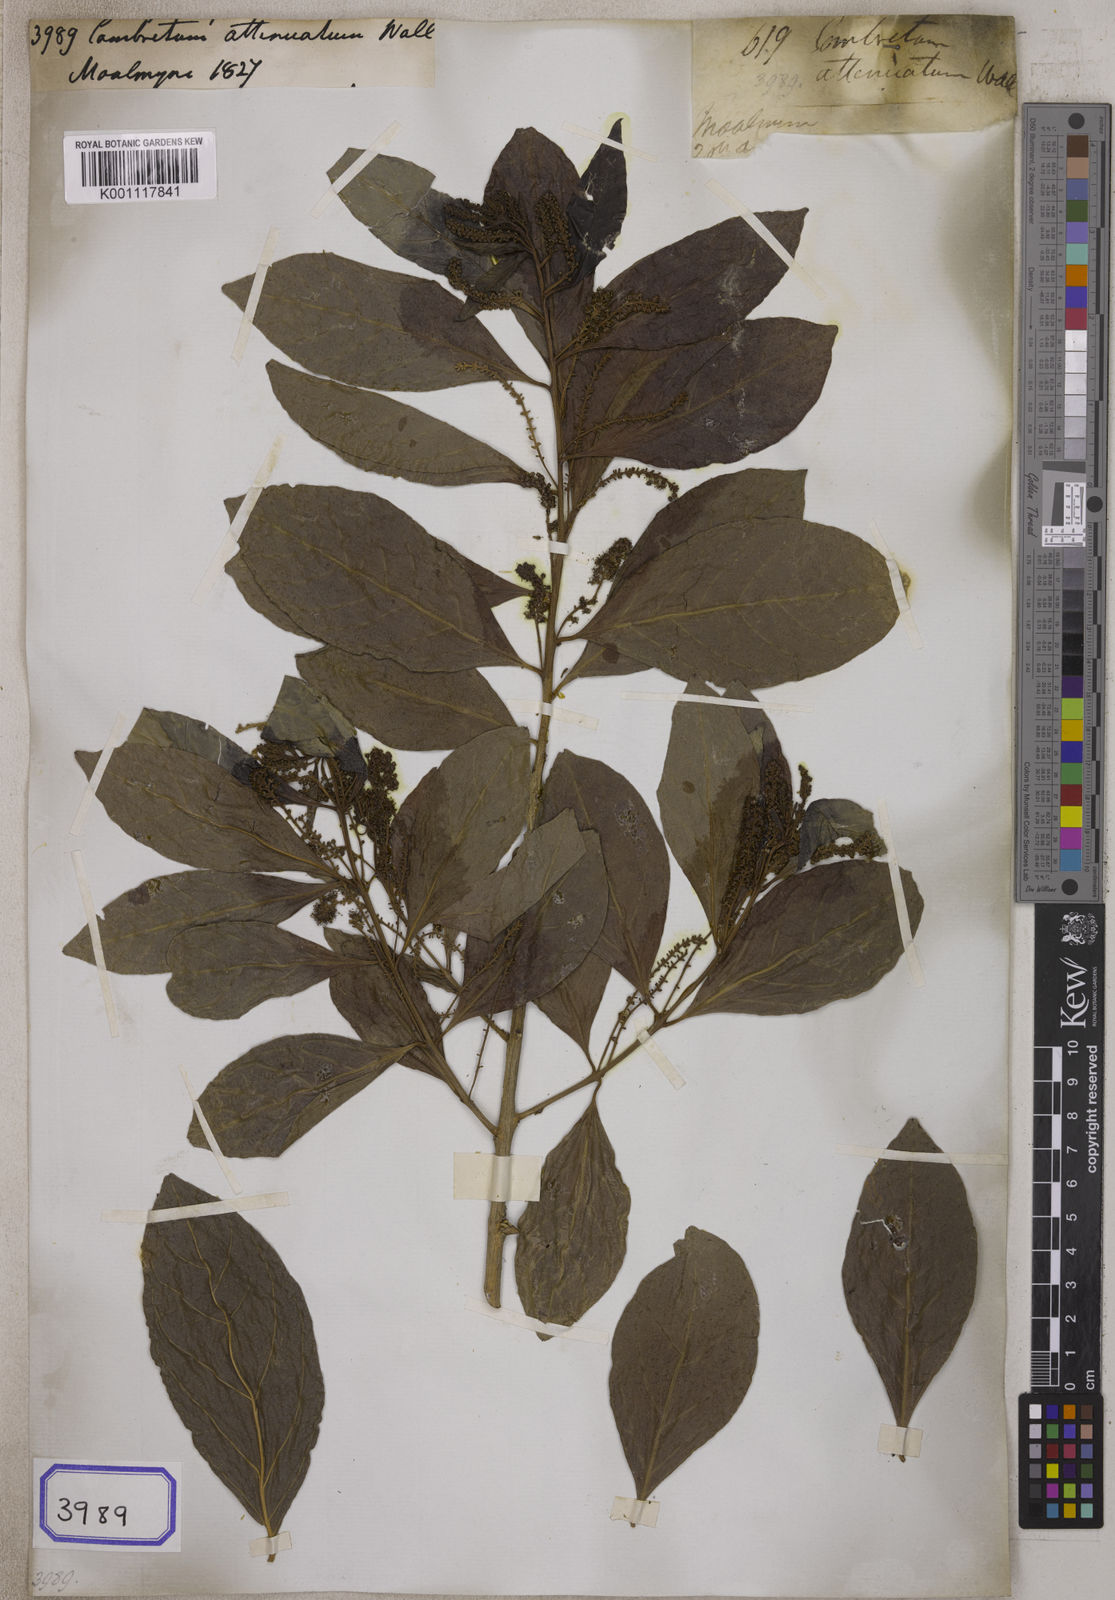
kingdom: Plantae
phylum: Tracheophyta
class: Magnoliopsida
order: Myrtales
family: Combretaceae
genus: Combretum
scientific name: Combretum quadrangulare
